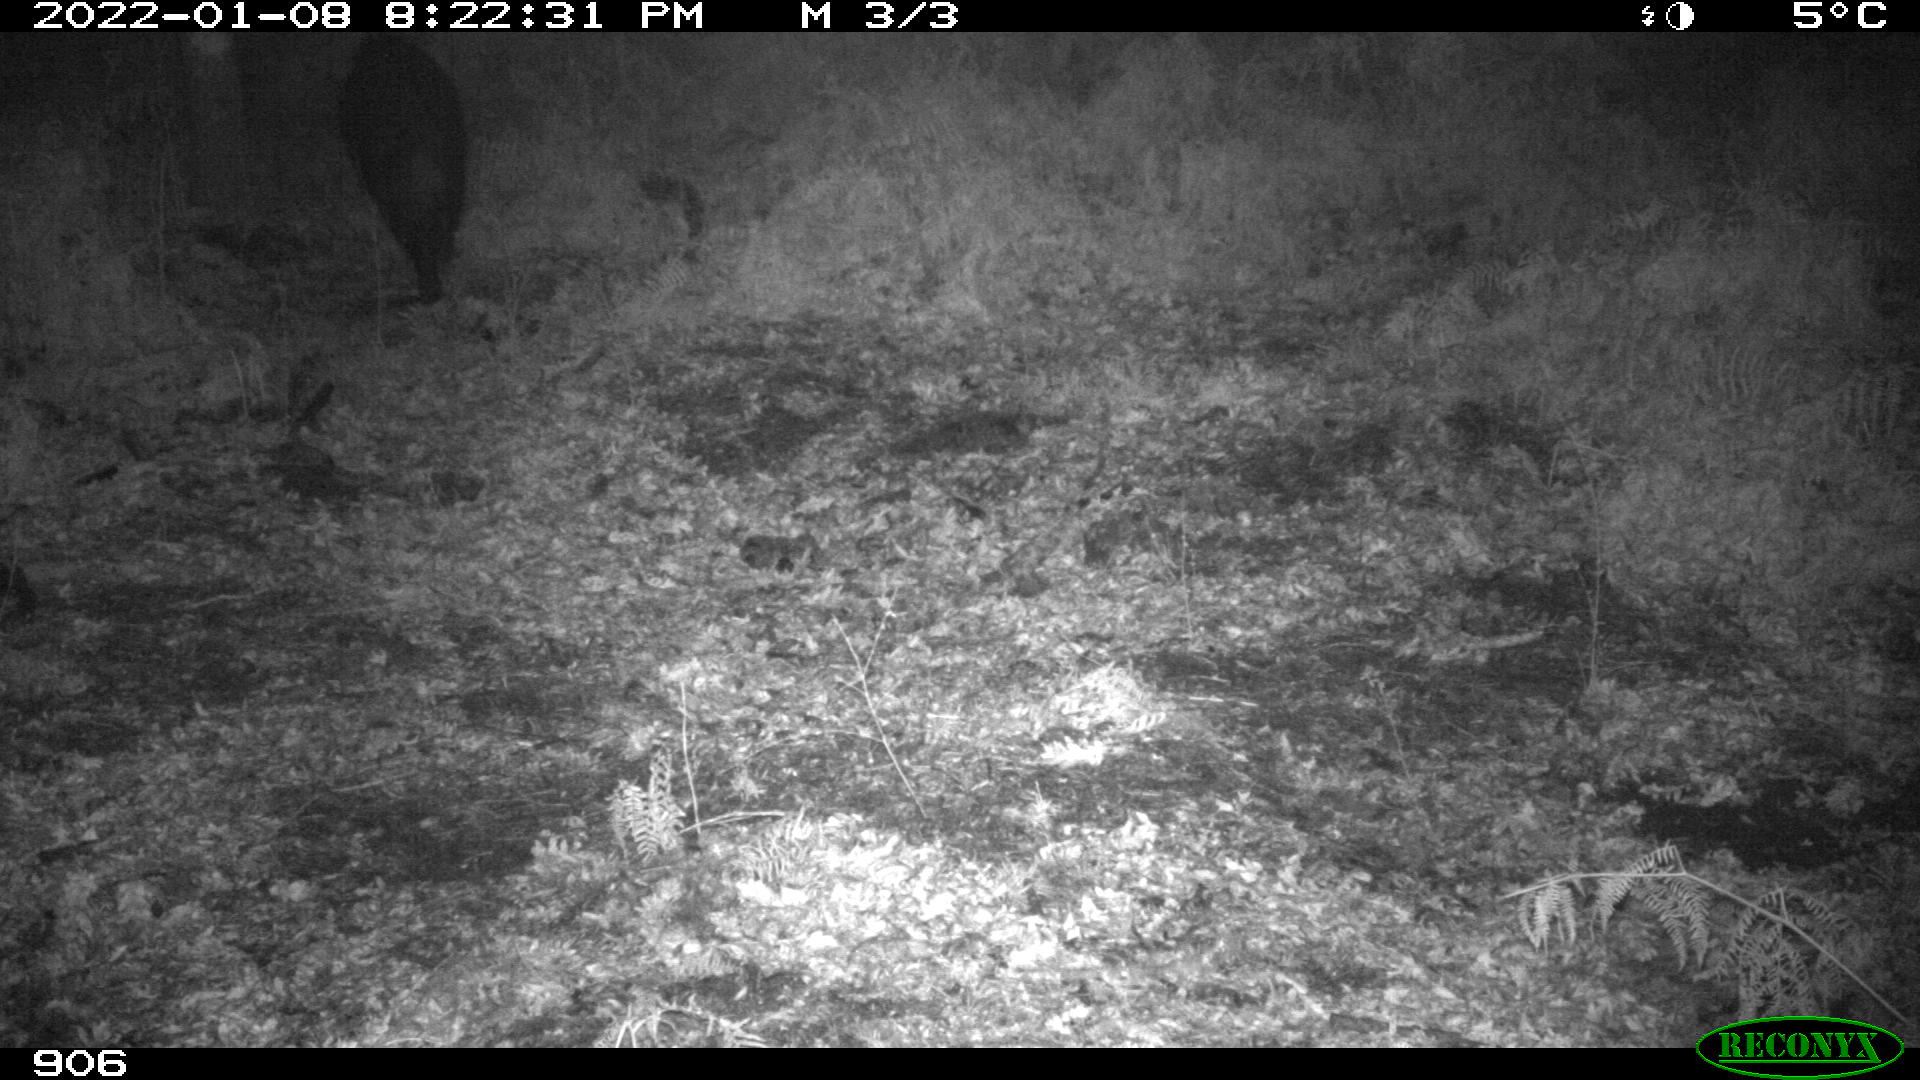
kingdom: Animalia
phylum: Chordata
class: Mammalia
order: Artiodactyla
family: Suidae
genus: Sus
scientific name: Sus scrofa
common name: Wild boar
